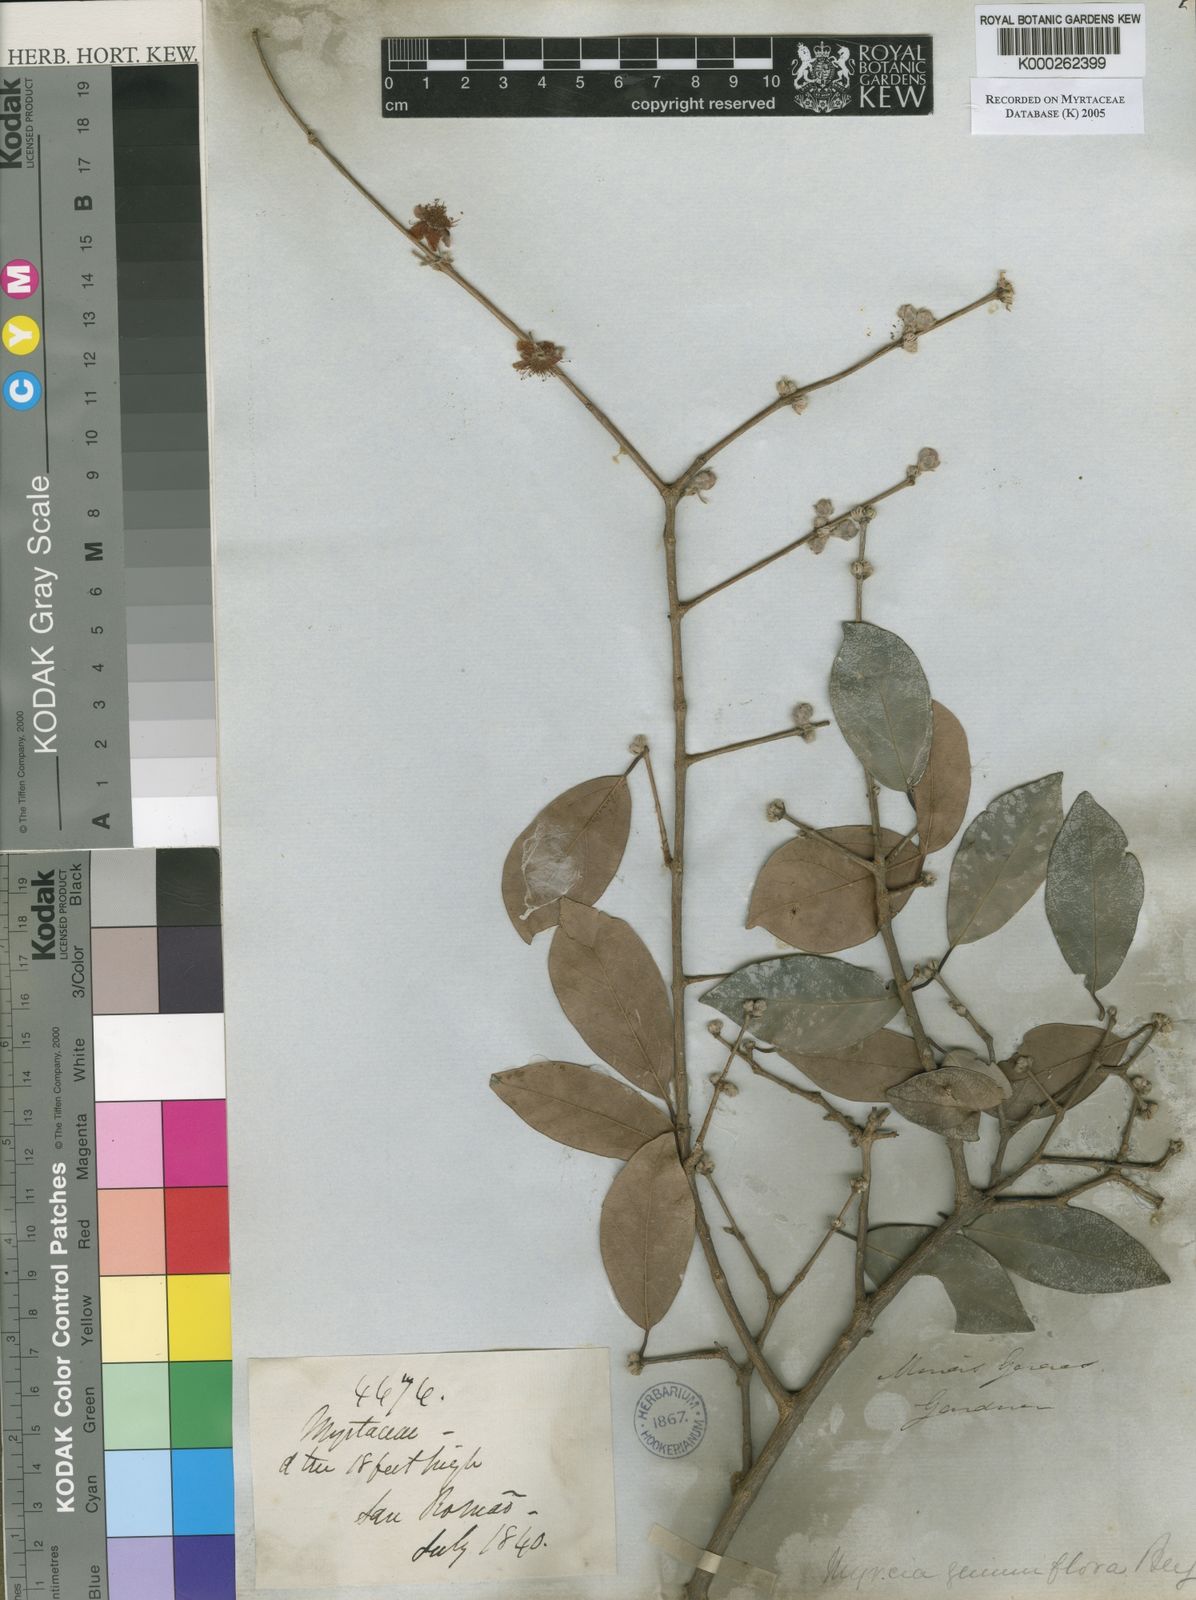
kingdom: Plantae
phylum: Tracheophyta
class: Magnoliopsida
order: Myrtales
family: Myrtaceae
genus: Eugenia
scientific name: Eugenia myrcianthes
